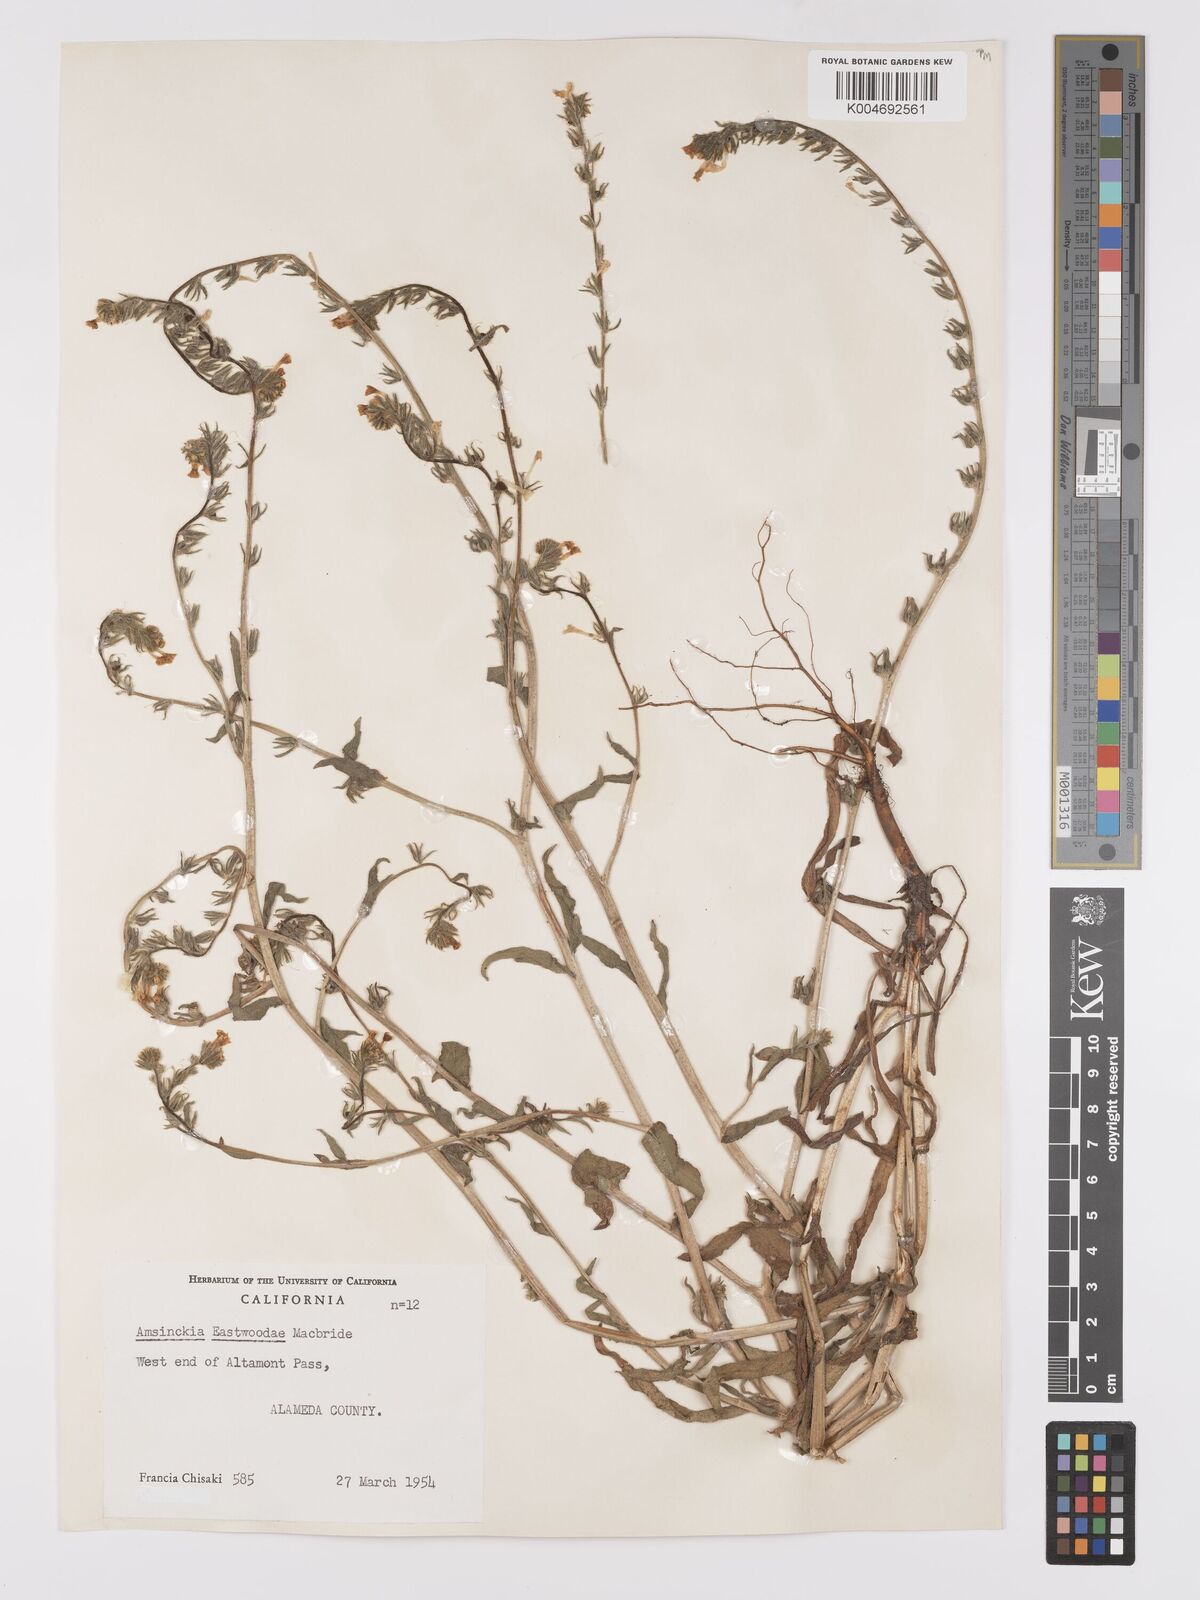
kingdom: Plantae
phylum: Tracheophyta
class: Magnoliopsida
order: Boraginales
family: Boraginaceae
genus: Amsinckia
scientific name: Amsinckia eastwoodiae
